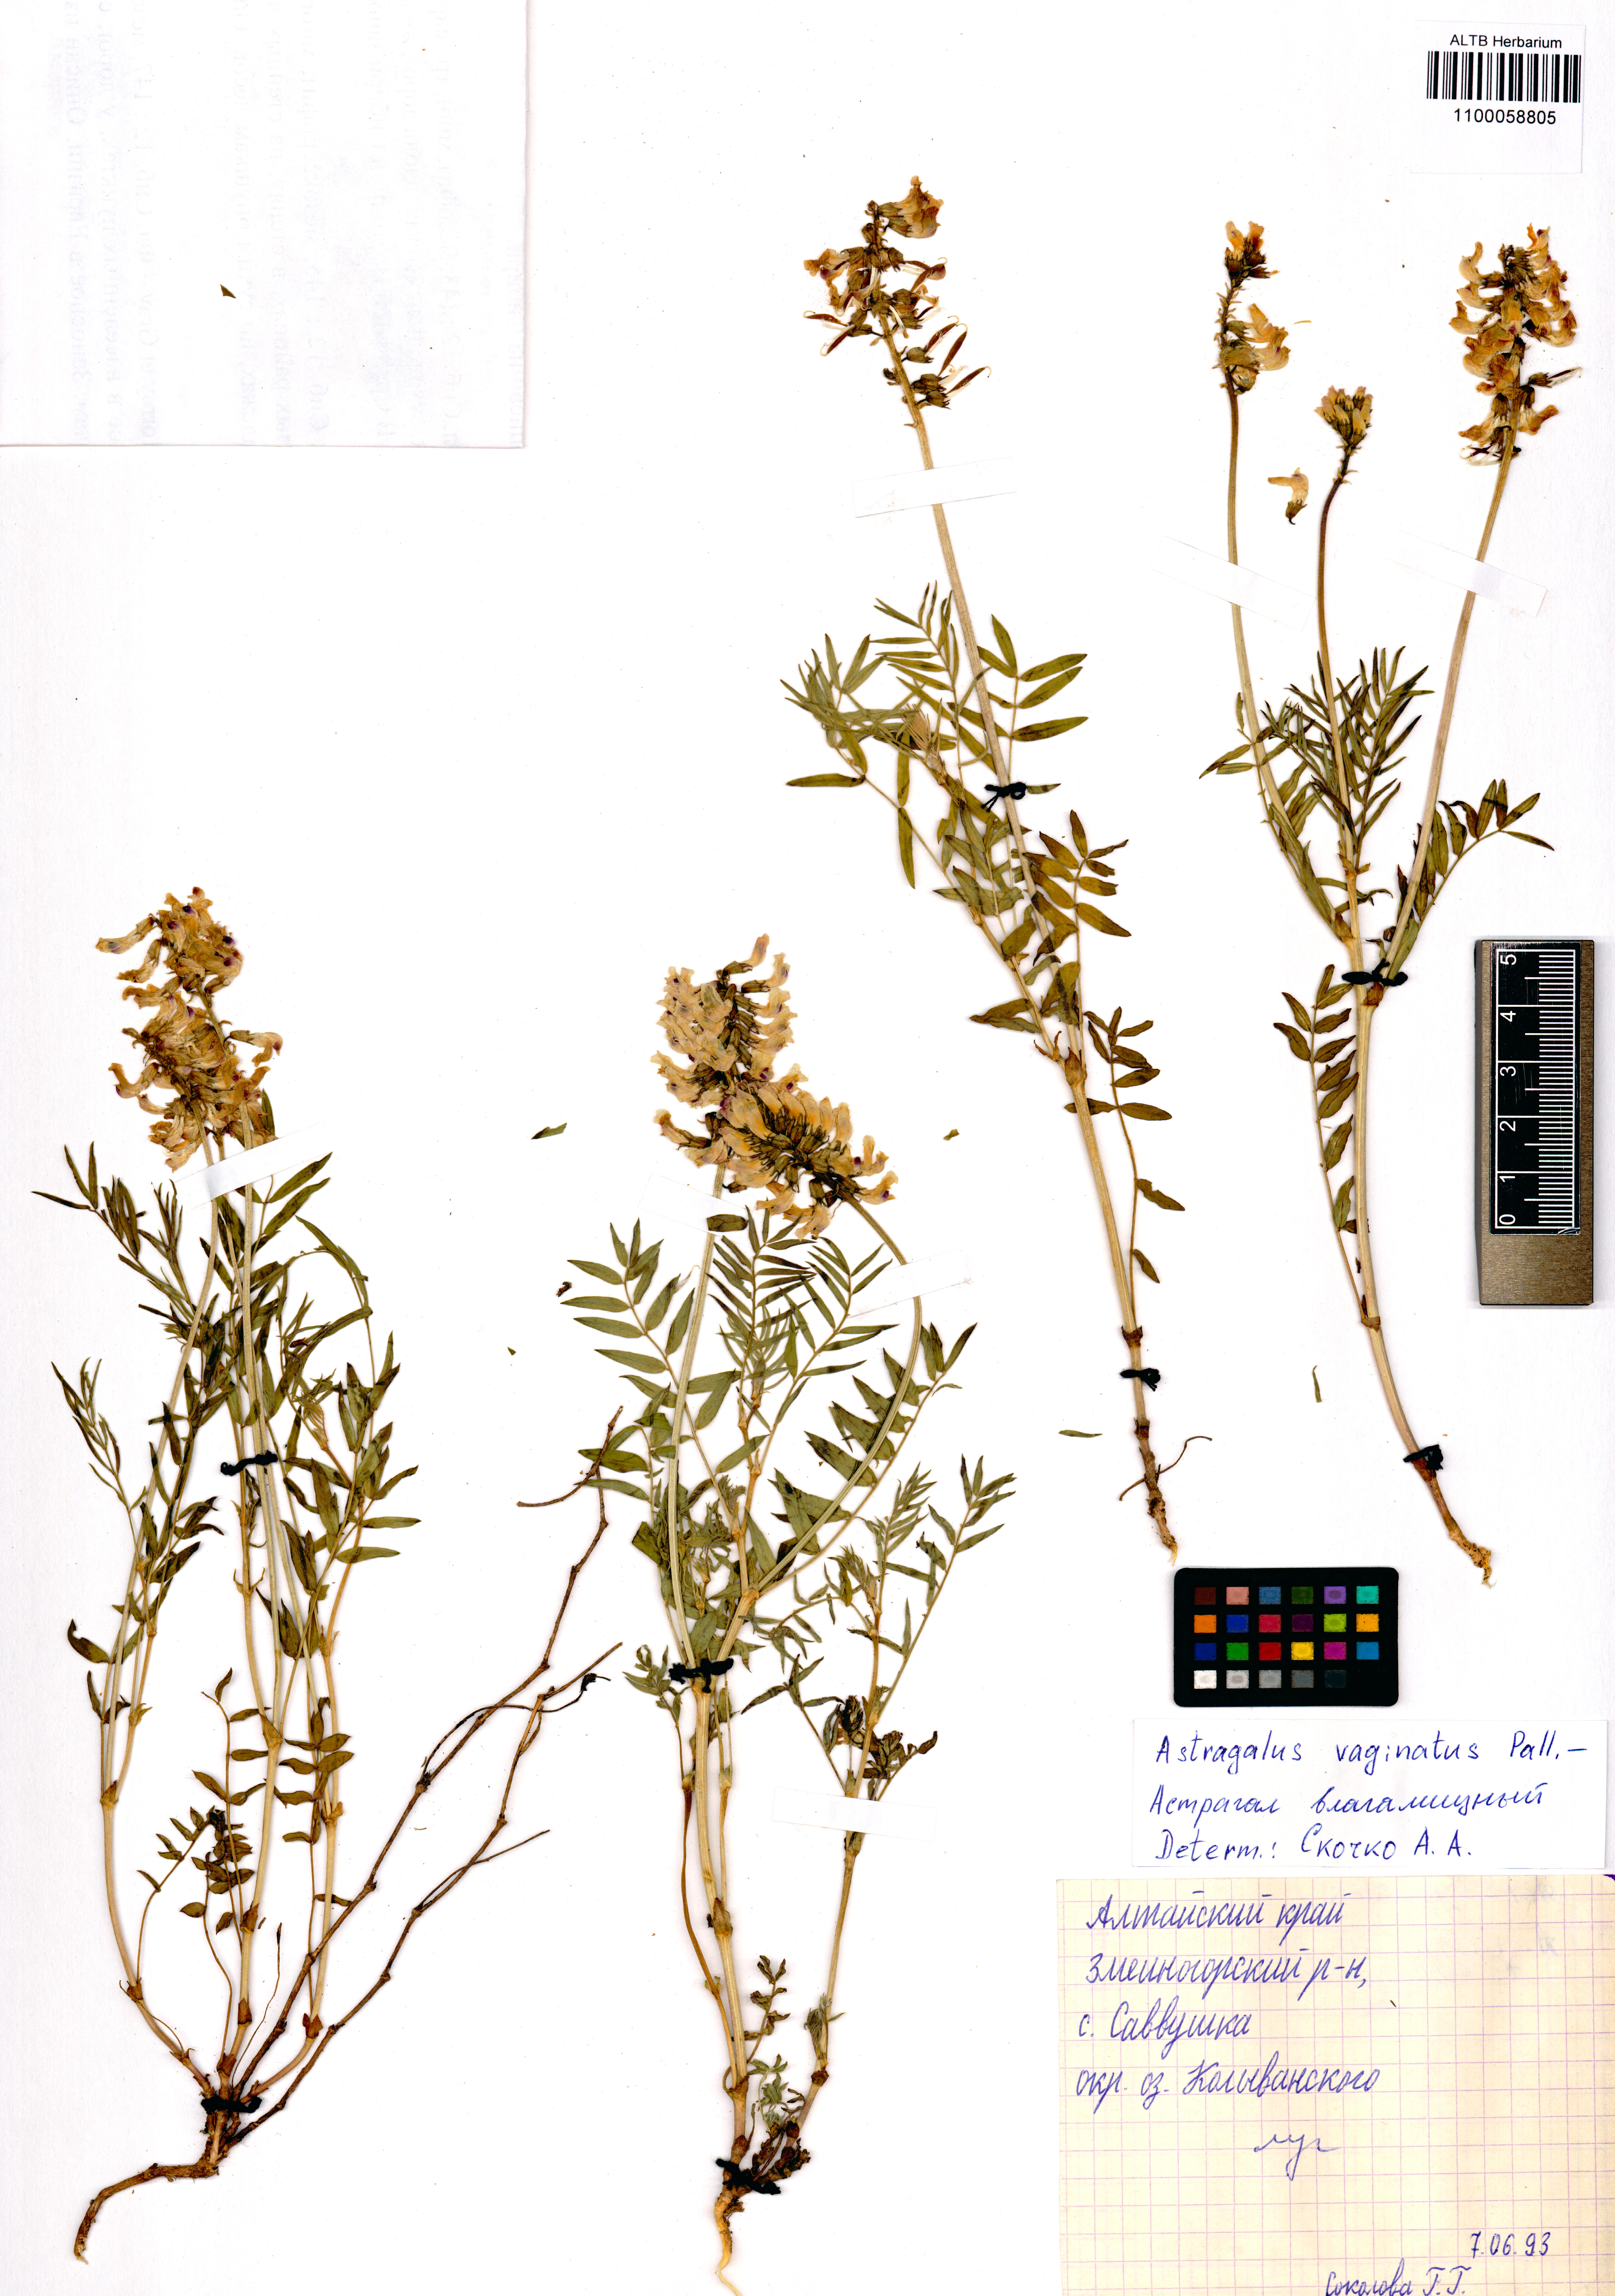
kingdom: Plantae
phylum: Tracheophyta
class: Magnoliopsida
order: Fabales
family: Fabaceae
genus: Astragalus
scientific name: Astragalus vaginatus
